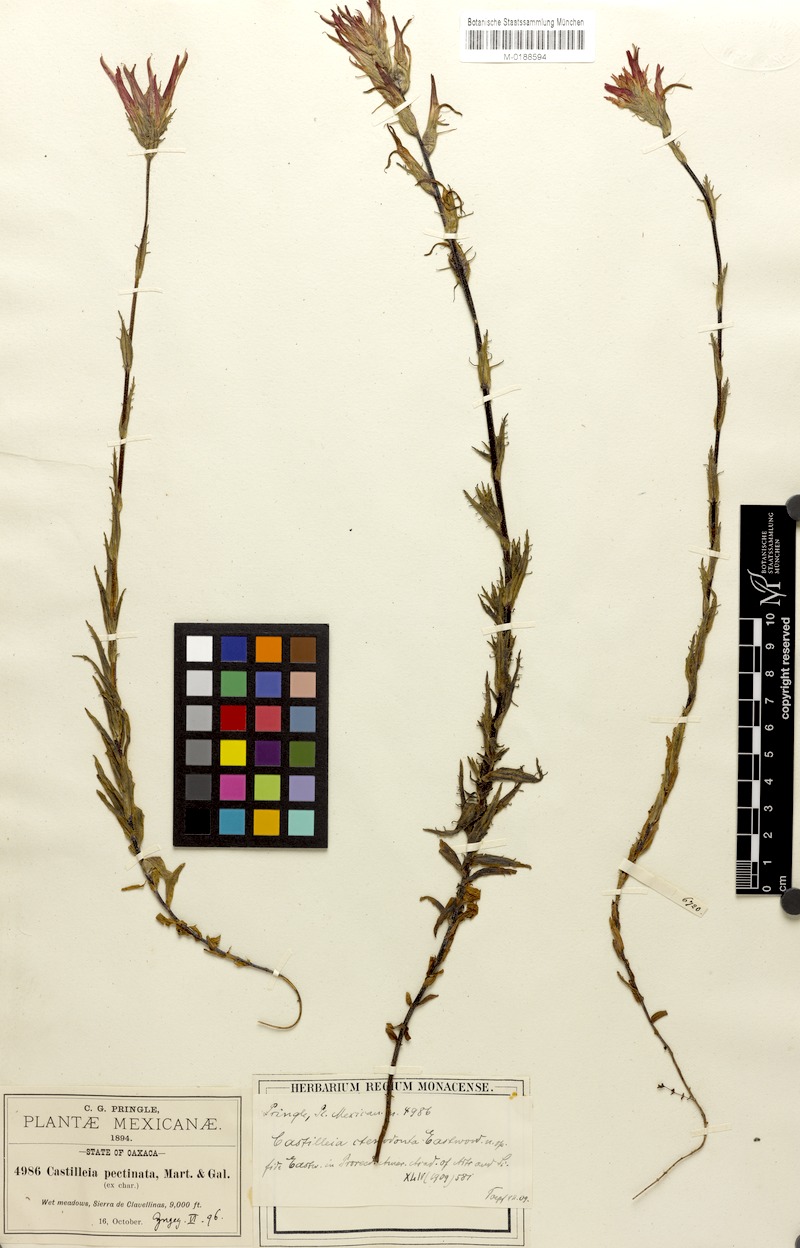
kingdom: Plantae
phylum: Tracheophyta
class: Magnoliopsida
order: Lamiales
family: Orobanchaceae
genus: Castilleja
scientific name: Castilleja ctenodonta
